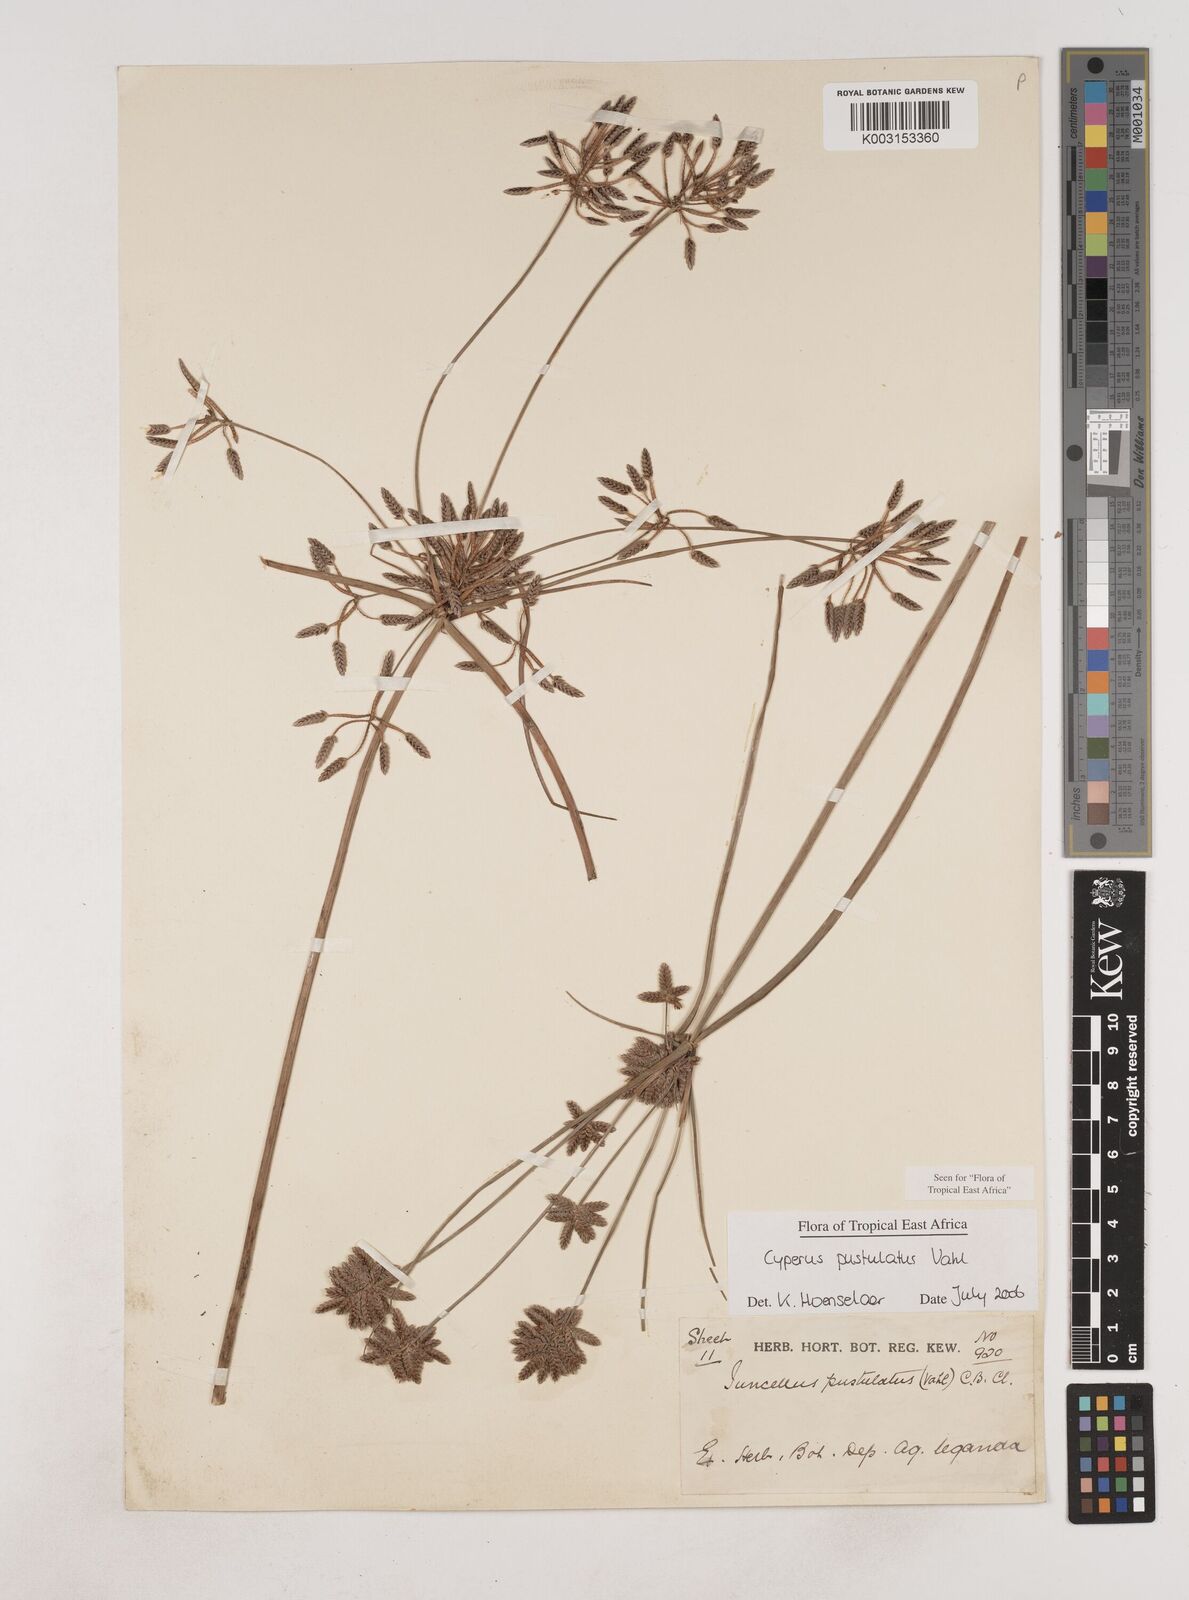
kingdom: Plantae
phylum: Tracheophyta
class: Liliopsida
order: Poales
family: Cyperaceae
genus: Cyperus
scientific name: Cyperus pustulatus
